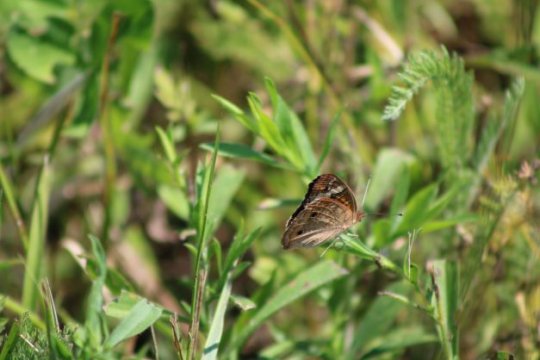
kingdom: Animalia
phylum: Arthropoda
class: Insecta
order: Lepidoptera
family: Nymphalidae
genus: Junonia
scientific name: Junonia coenia
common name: Common Buckeye
